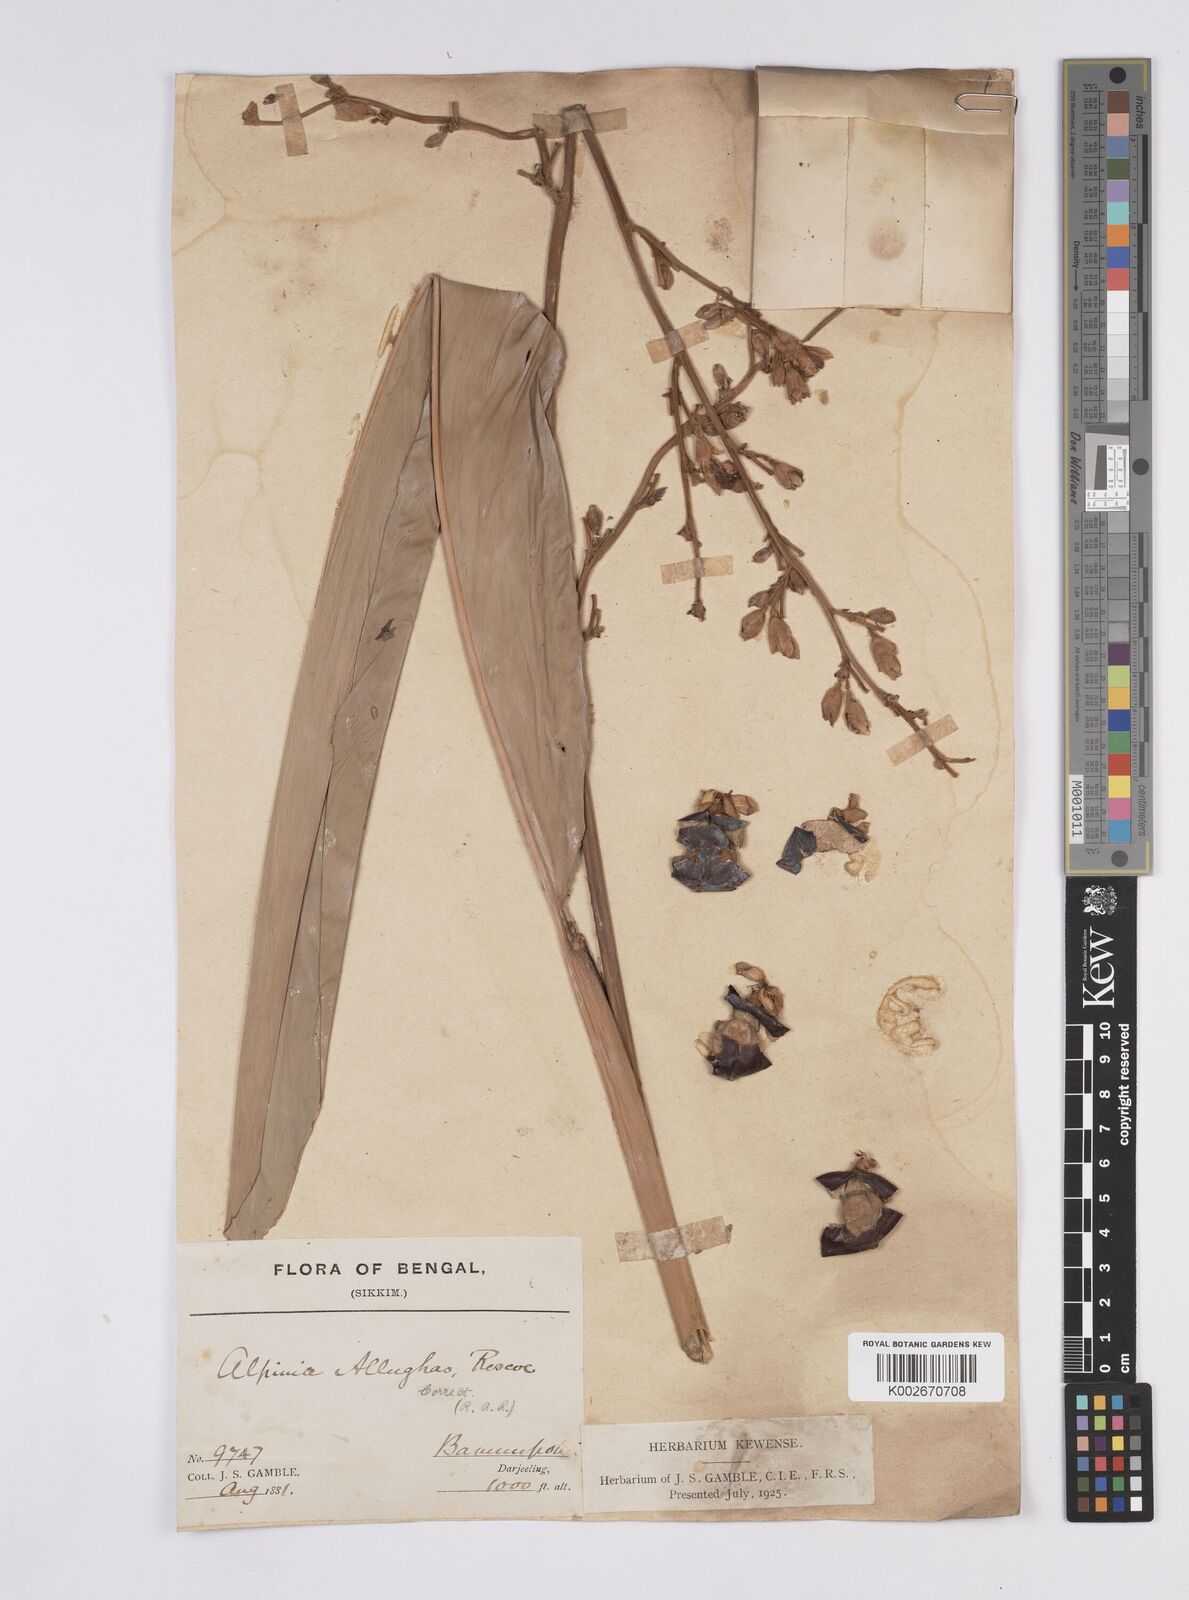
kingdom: Plantae
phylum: Tracheophyta
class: Liliopsida
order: Zingiberales
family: Zingiberaceae
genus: Alpinia
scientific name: Alpinia nigra
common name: Black fruited galanga
